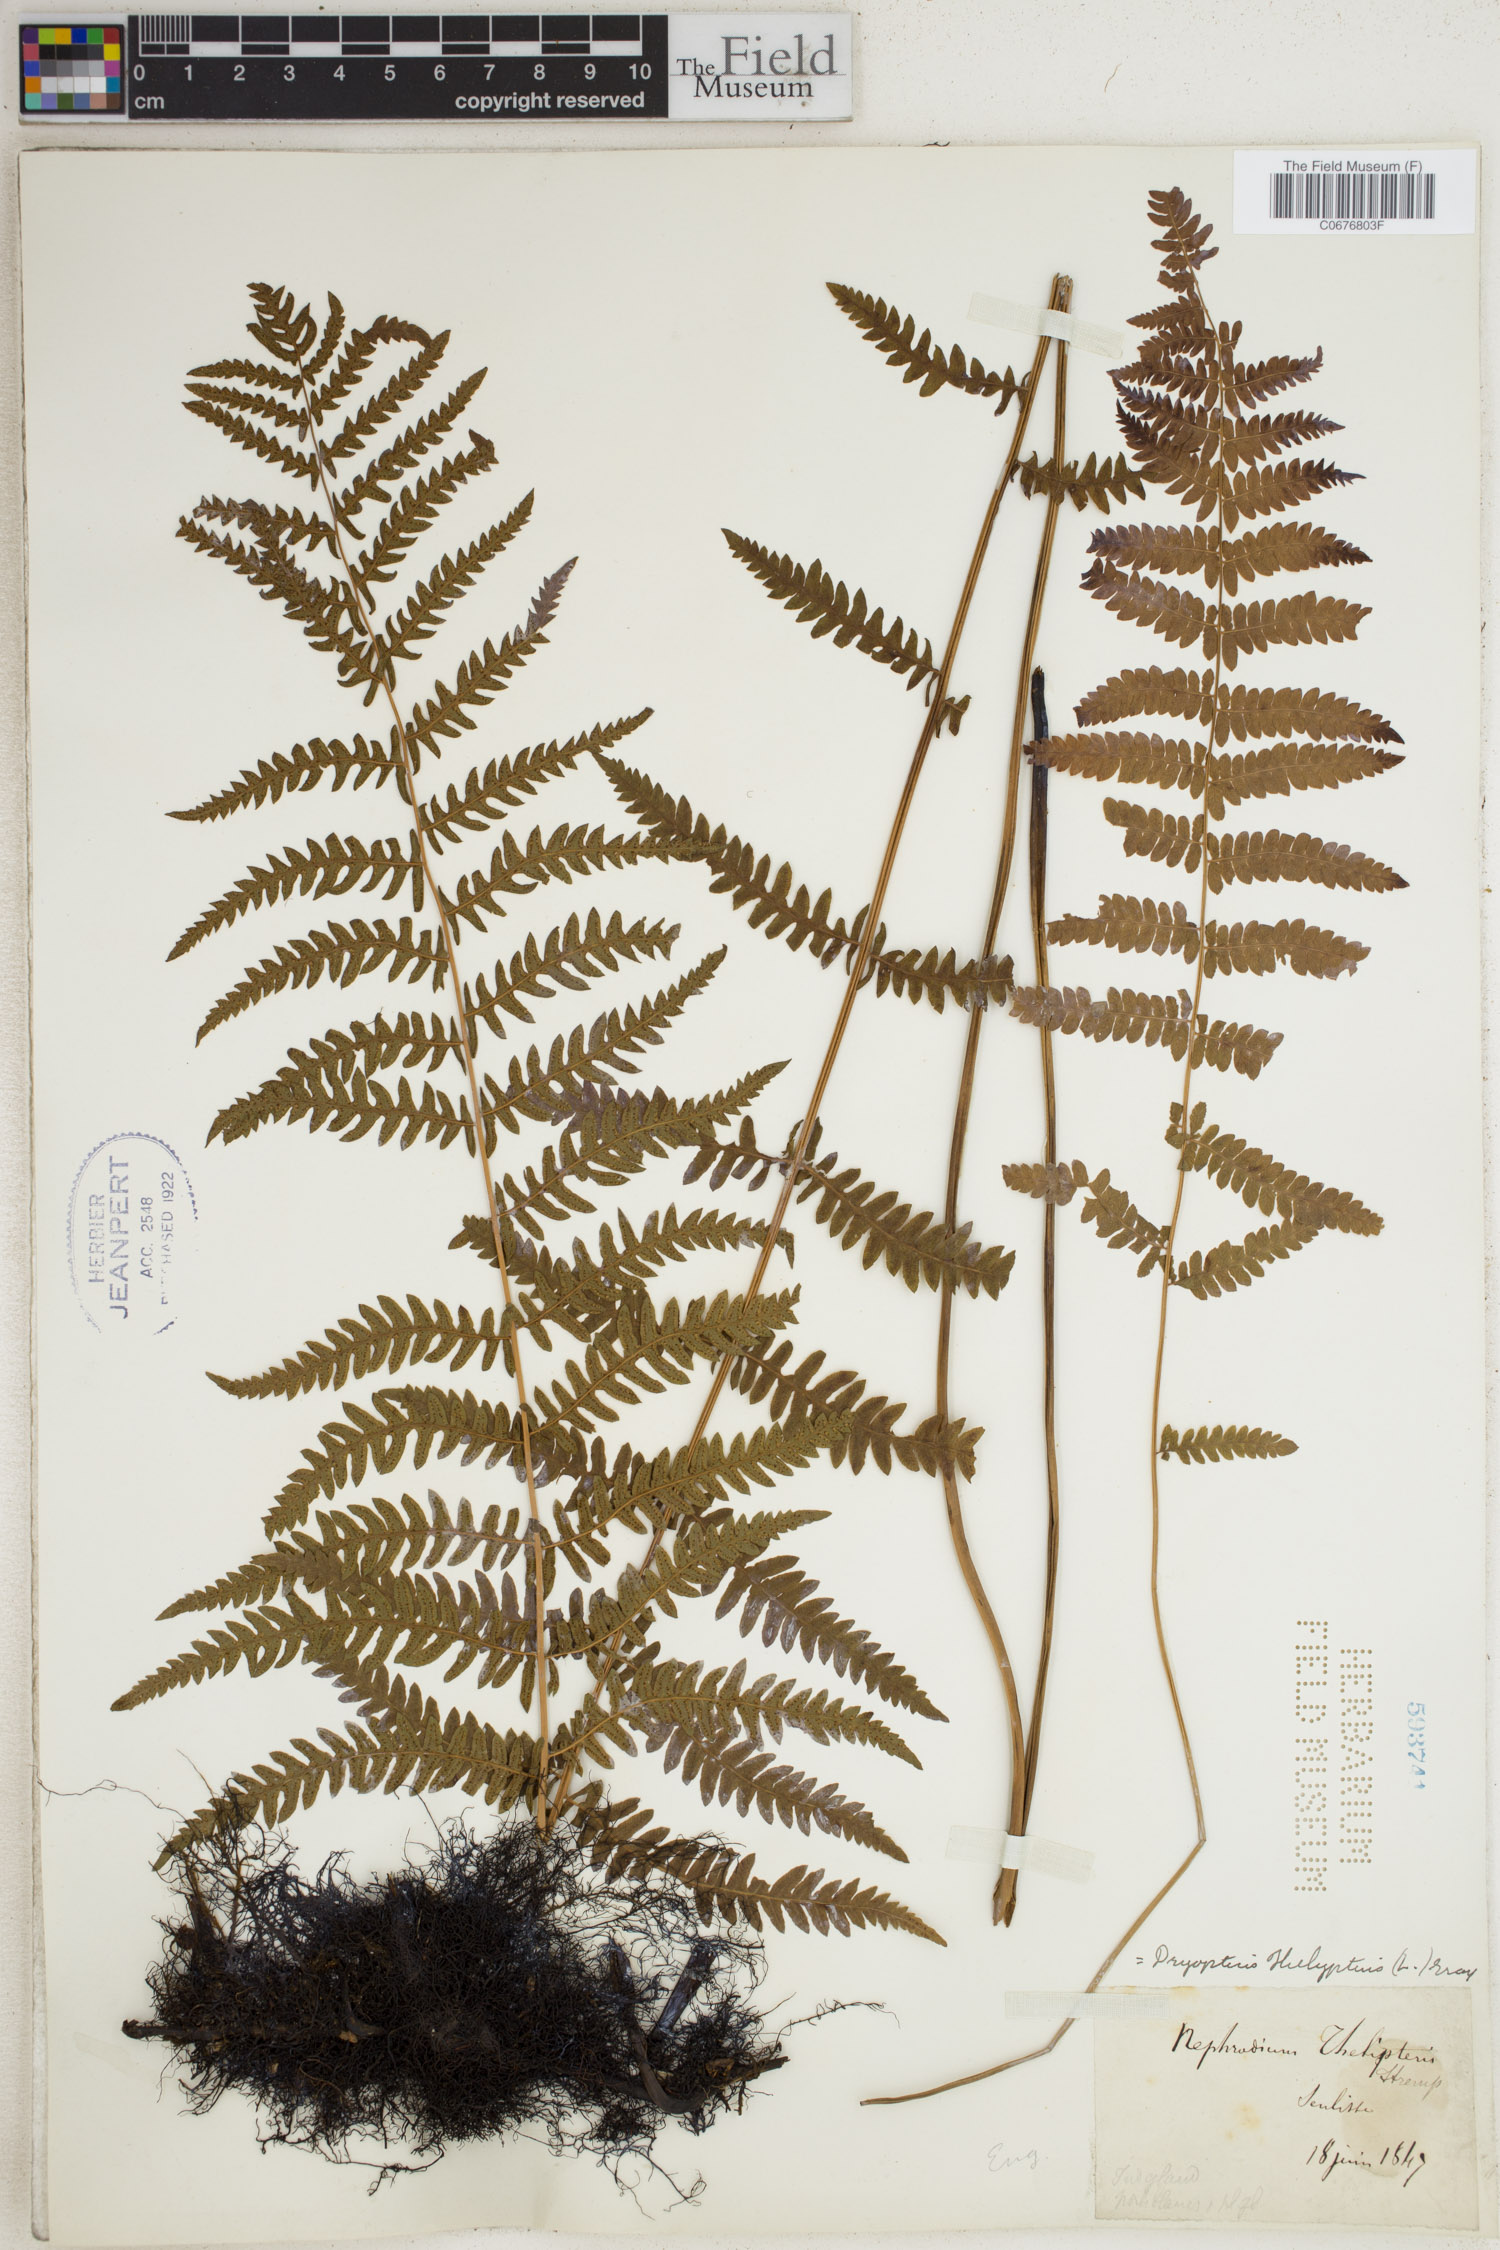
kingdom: Plantae
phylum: Tracheophyta
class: Polypodiopsida
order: Polypodiales
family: Thelypteridaceae
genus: Thelypteris
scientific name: Thelypteris palustris
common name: Marsh fern
